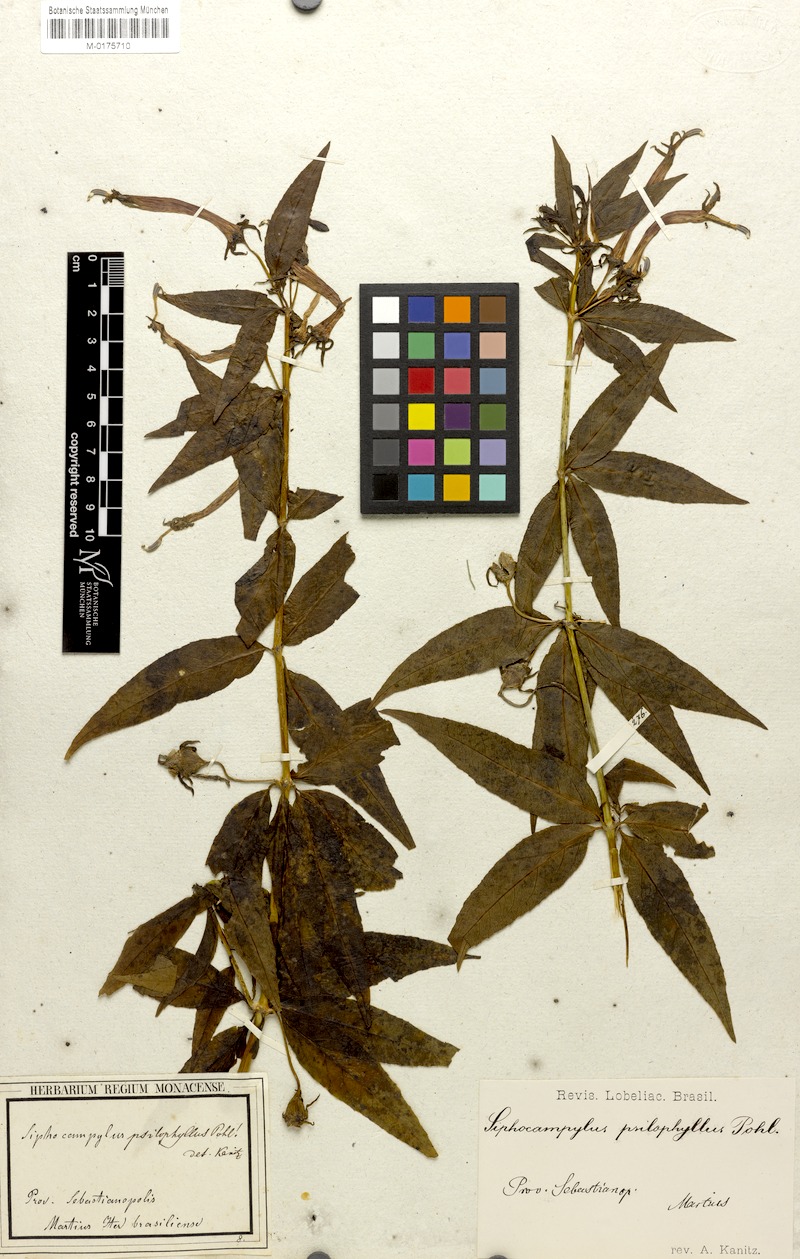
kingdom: Plantae
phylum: Tracheophyta
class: Magnoliopsida
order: Asterales
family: Campanulaceae
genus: Siphocampylus
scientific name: Siphocampylus psilophyllus
